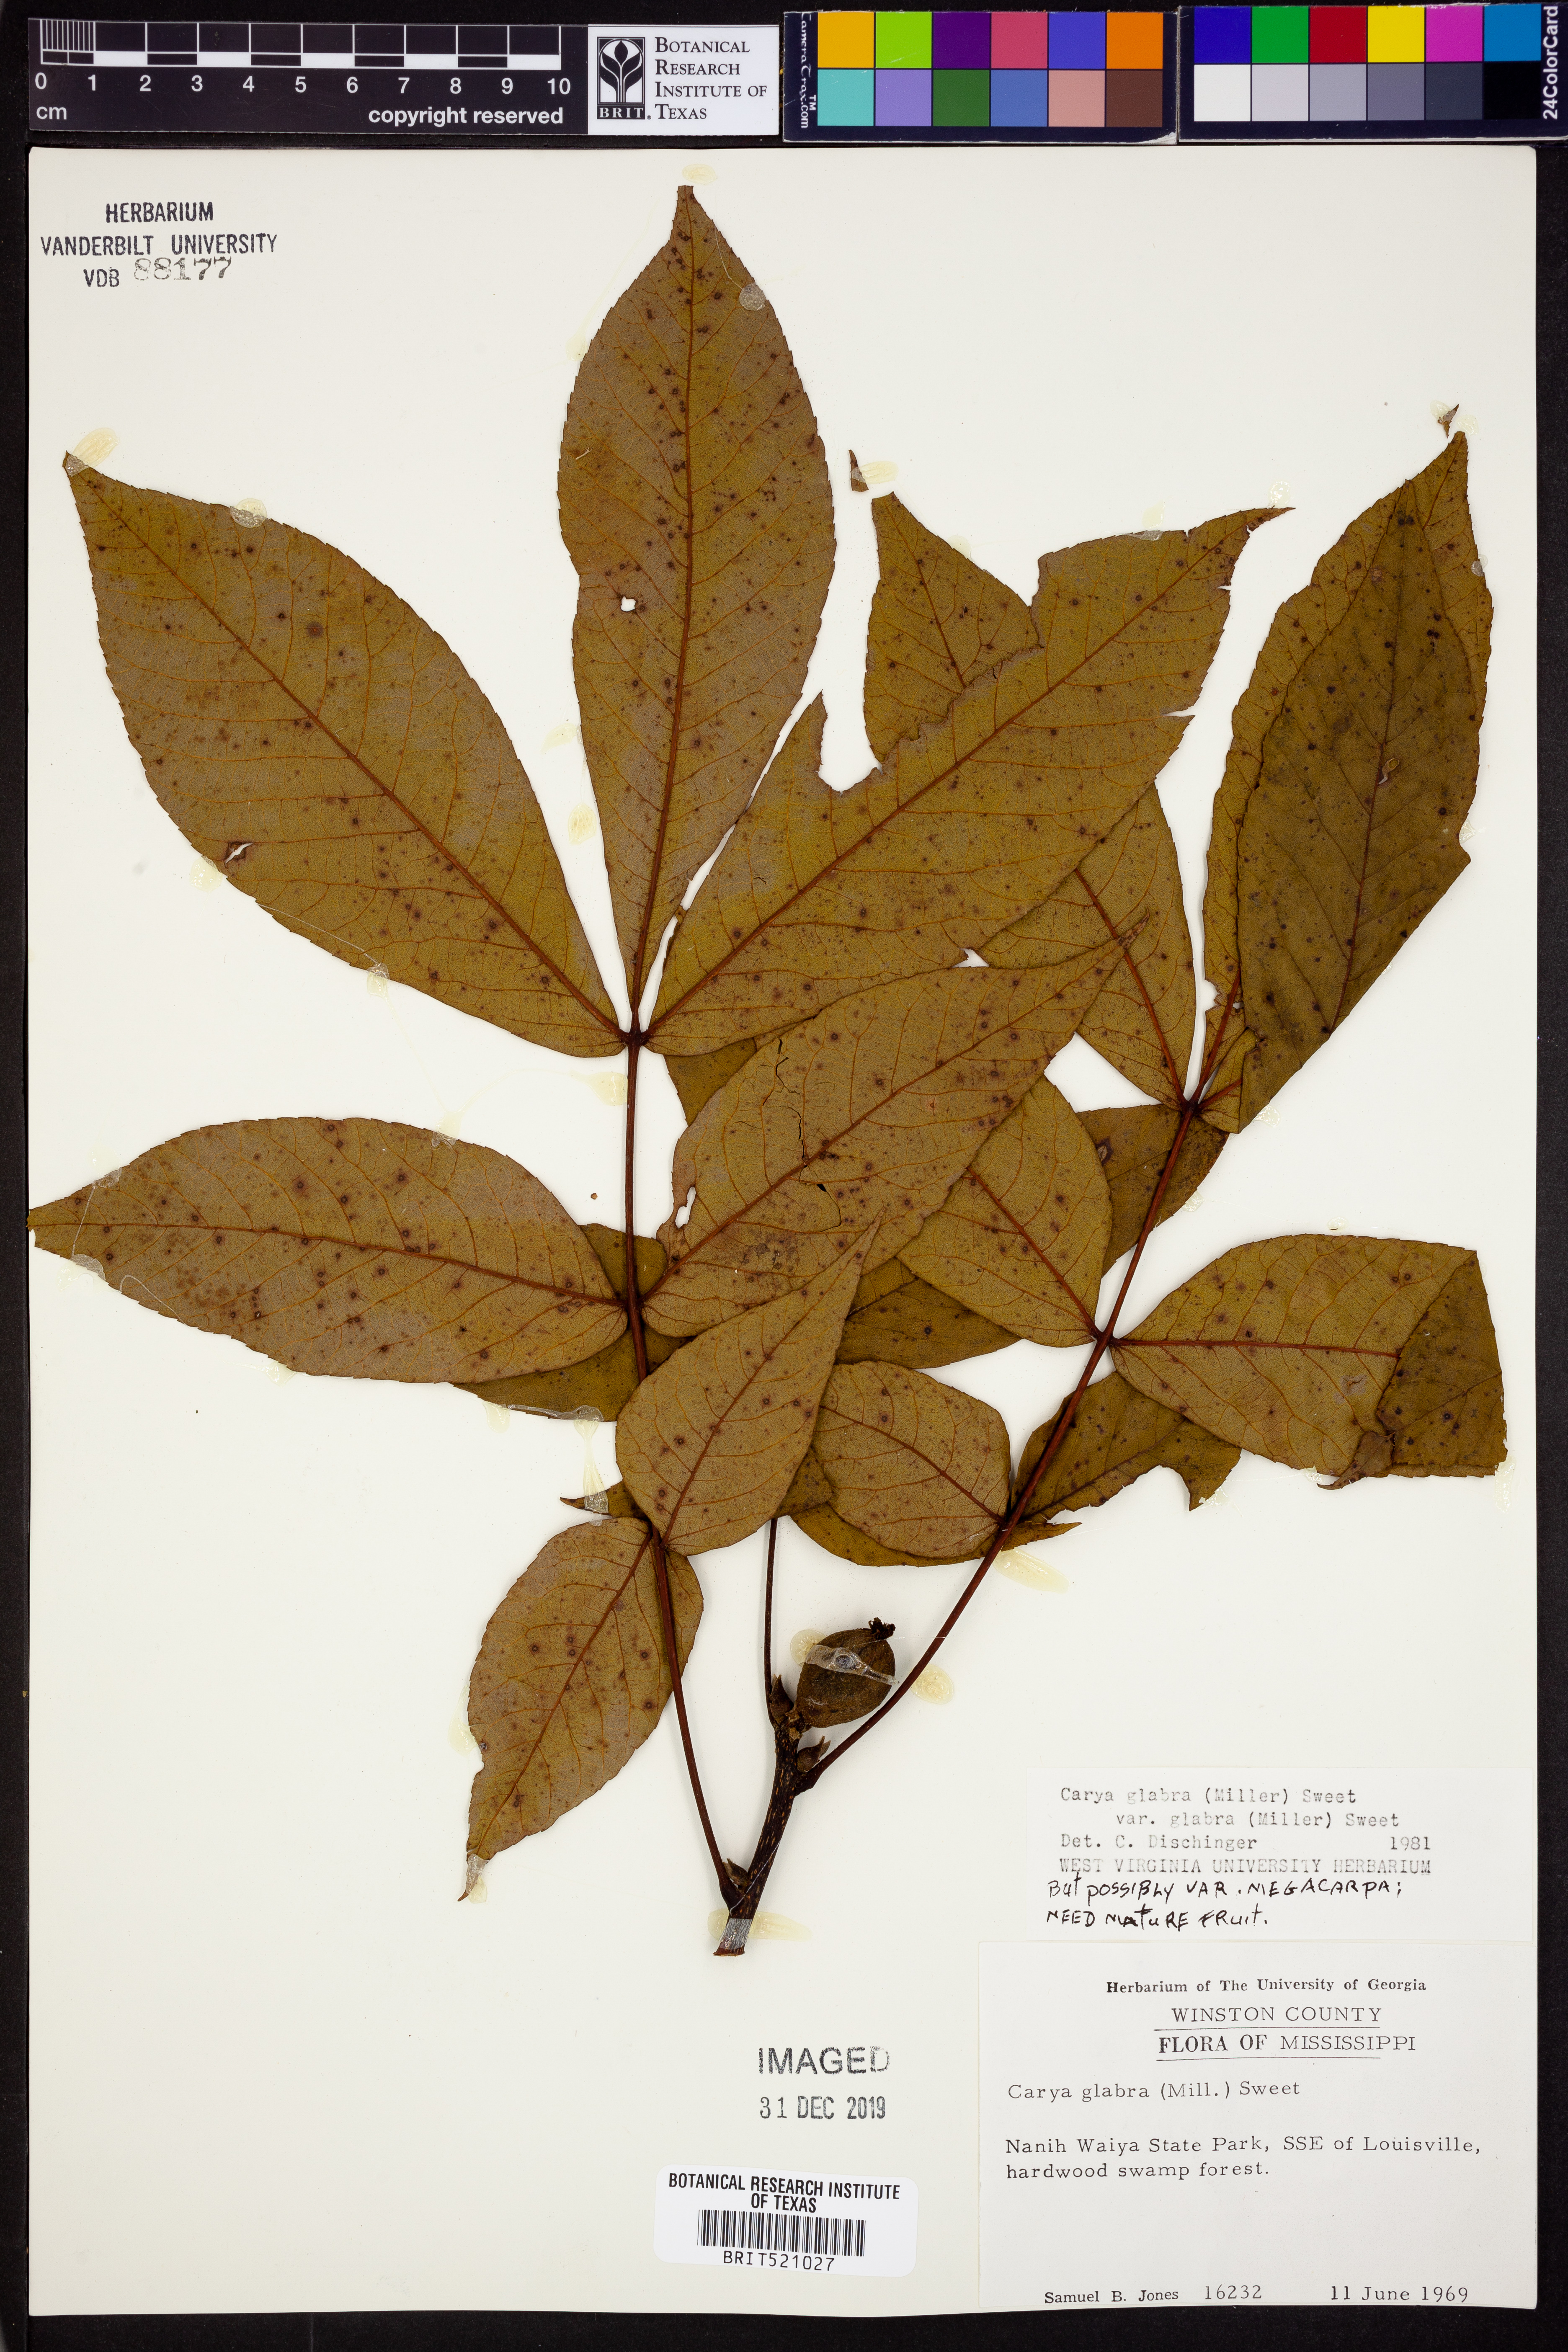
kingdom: Plantae
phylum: Tracheophyta
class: Magnoliopsida
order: Fagales
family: Juglandaceae
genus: Carya
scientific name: Carya glabra
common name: Pignut hickory
